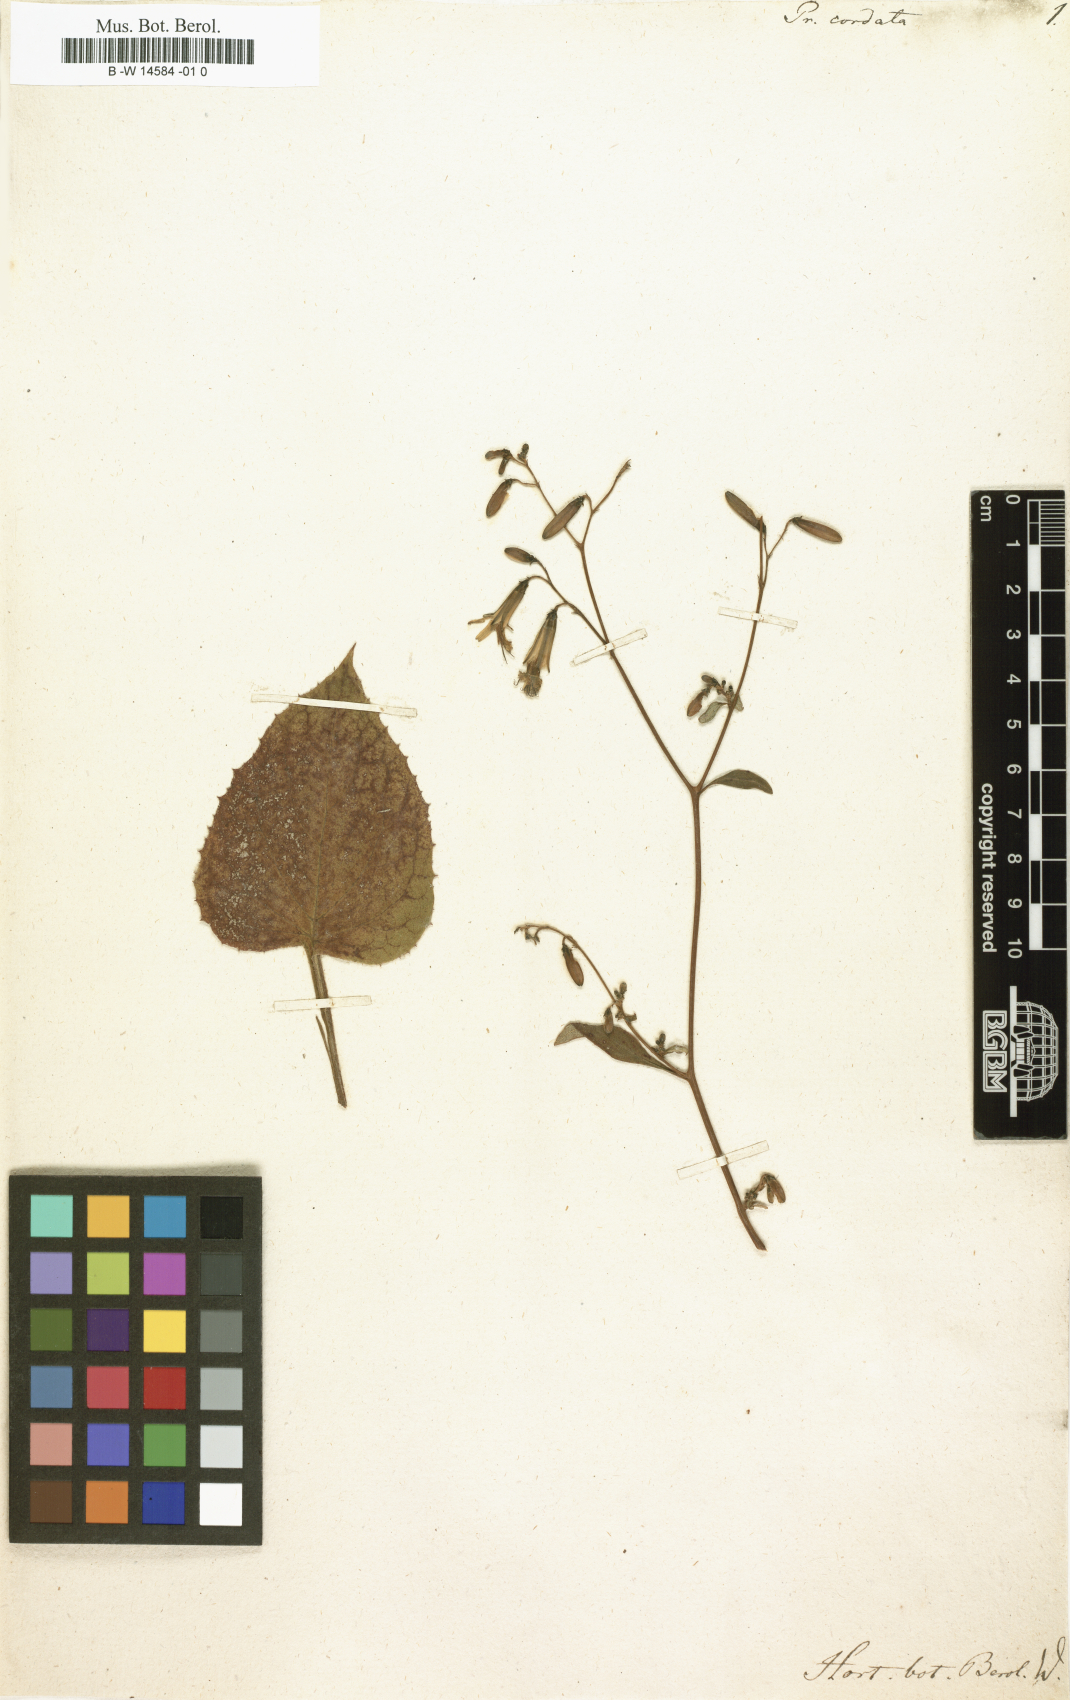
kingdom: Plantae
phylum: Tracheophyta
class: Magnoliopsida
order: Asterales
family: Asteraceae
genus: Nabalus
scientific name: Nabalus altissima
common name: Tall rattlesnakeroot
